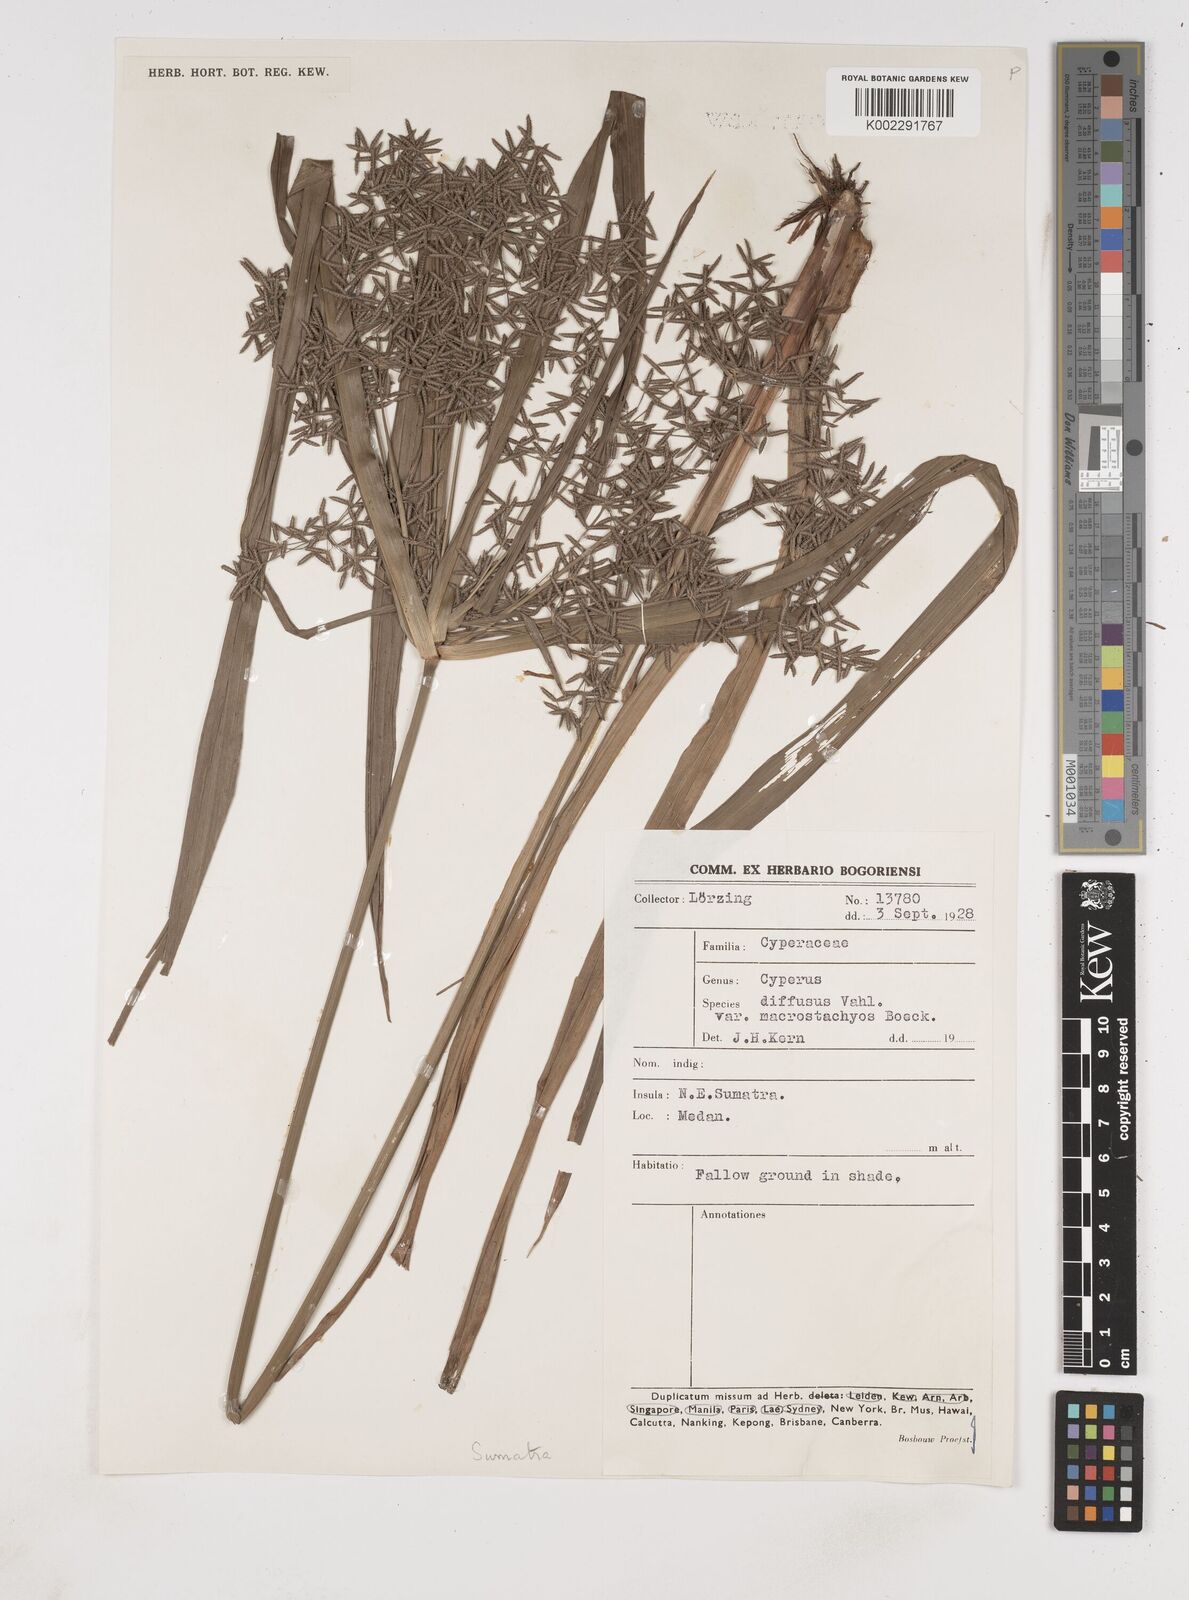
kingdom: Plantae
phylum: Tracheophyta
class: Liliopsida
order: Poales
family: Cyperaceae
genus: Cyperus
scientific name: Cyperus diffusus
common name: Dwarf umbrella grass
